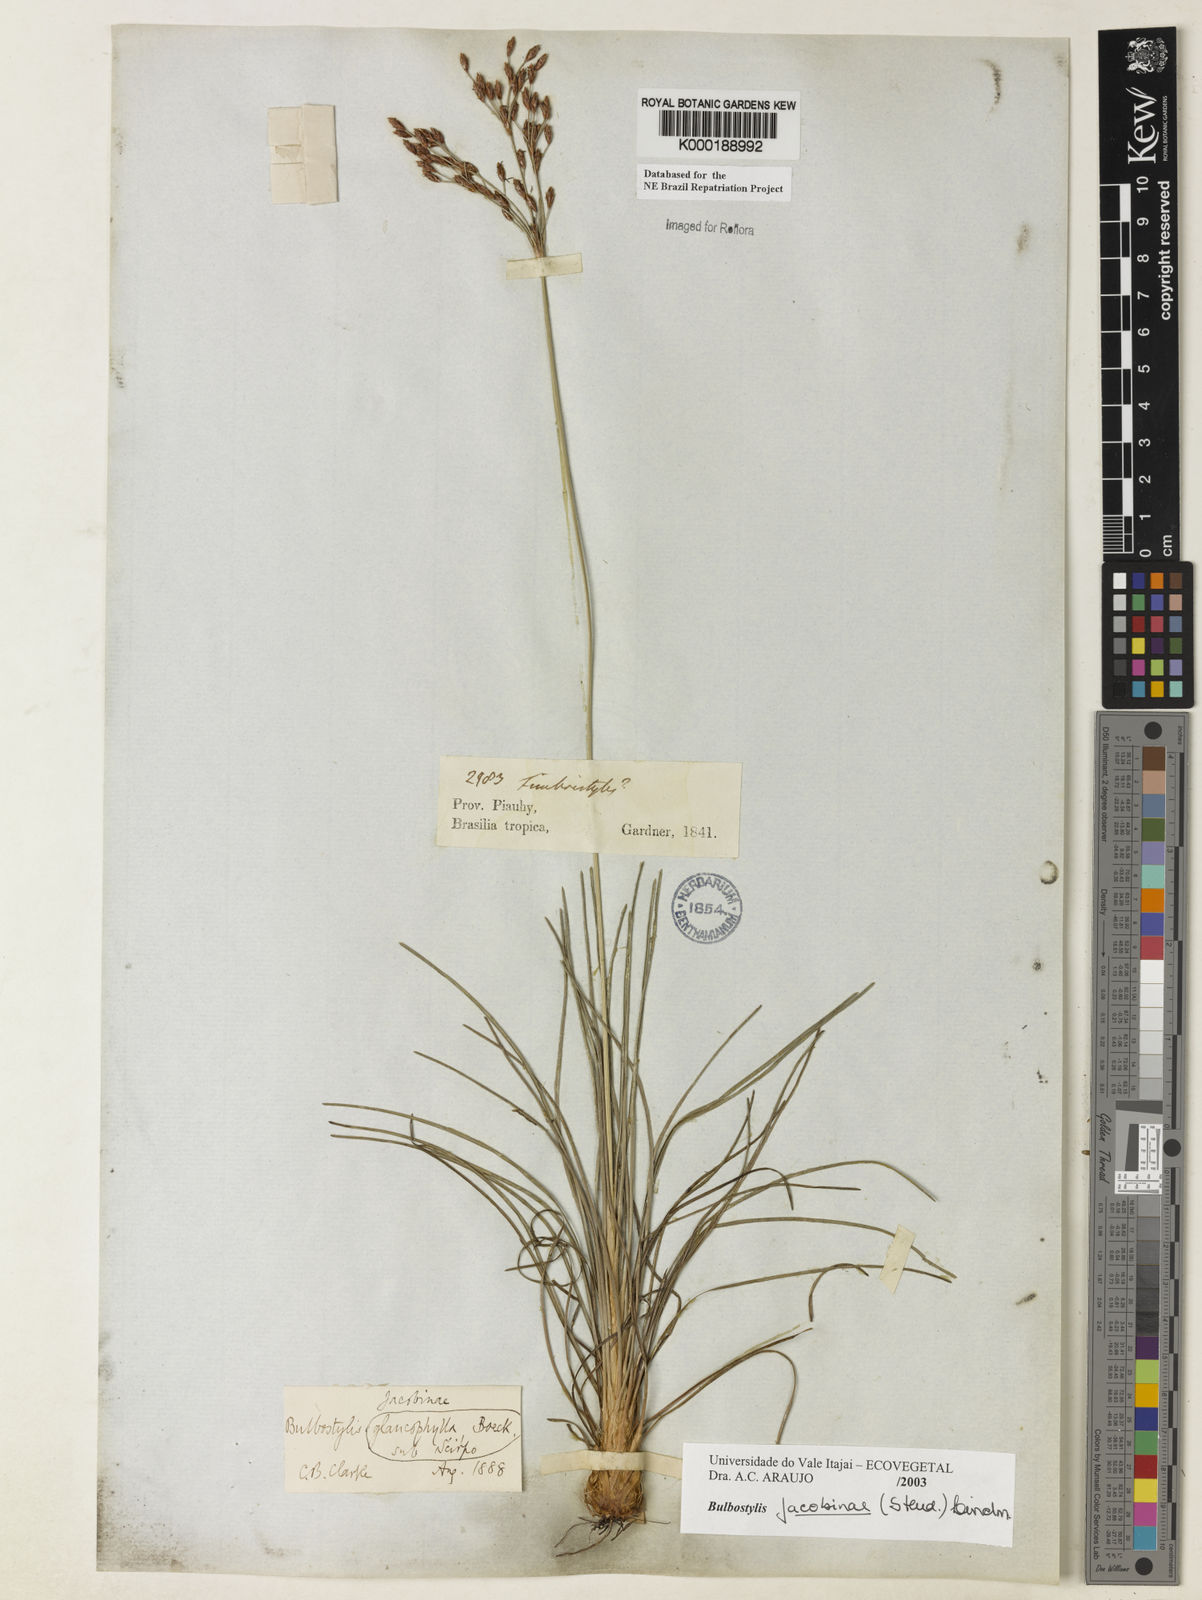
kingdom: Plantae
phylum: Tracheophyta
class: Liliopsida
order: Poales
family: Cyperaceae
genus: Bulbostylis
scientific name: Bulbostylis jacobinae
